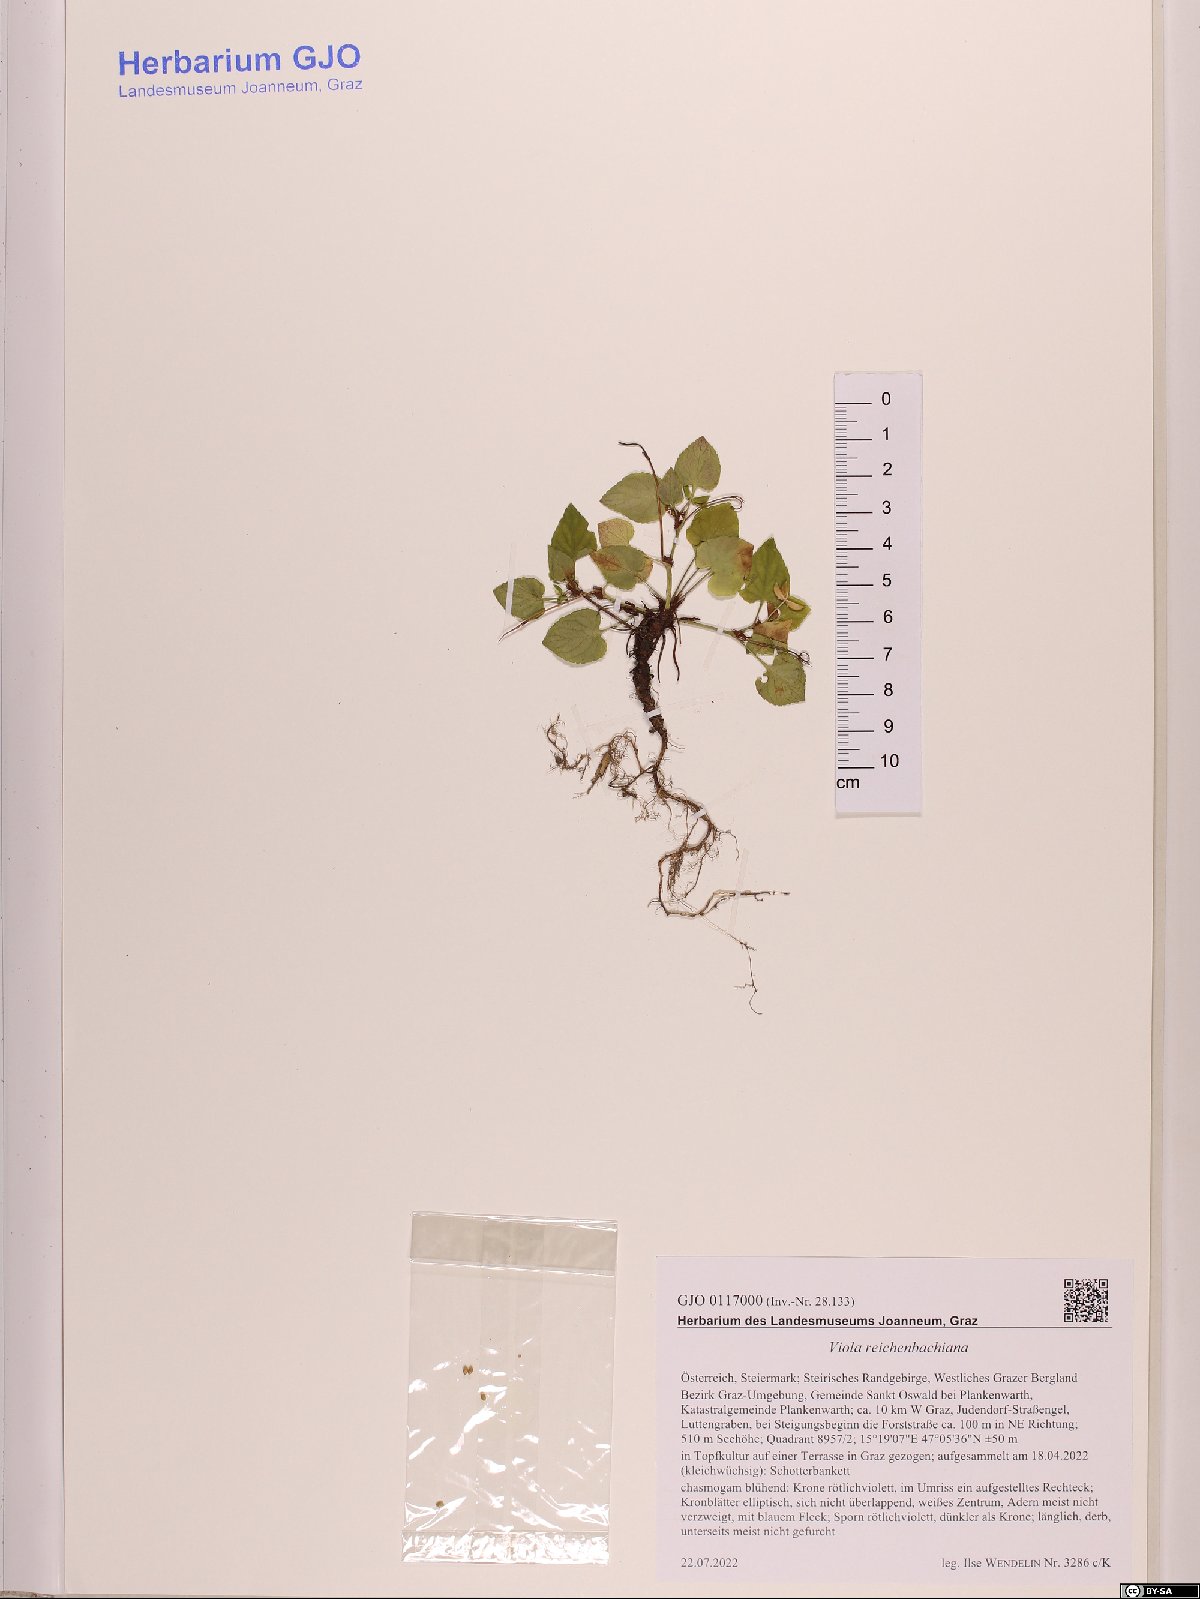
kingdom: Plantae
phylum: Tracheophyta
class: Magnoliopsida
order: Malpighiales
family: Violaceae
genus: Viola
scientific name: Viola reichenbachiana
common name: Early dog-violet
